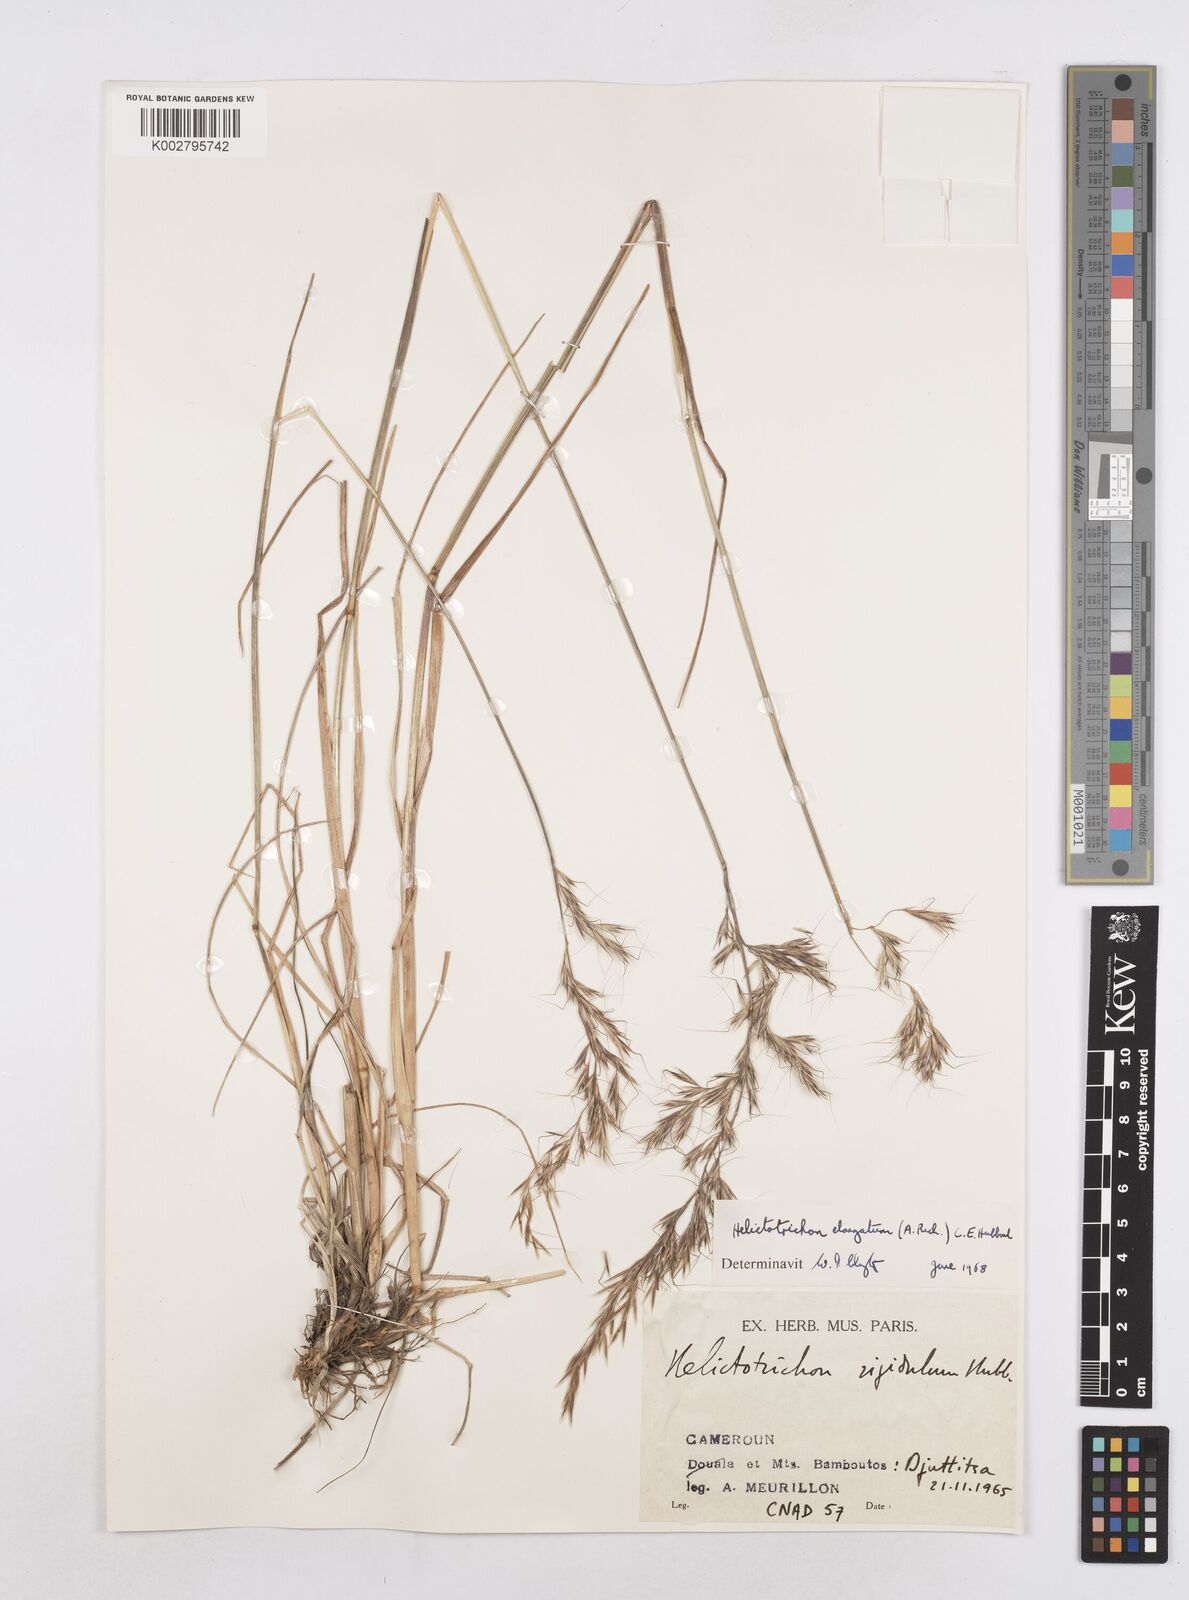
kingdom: Plantae
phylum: Tracheophyta
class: Liliopsida
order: Poales
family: Poaceae
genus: Trisetopsis
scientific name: Trisetopsis elongata
